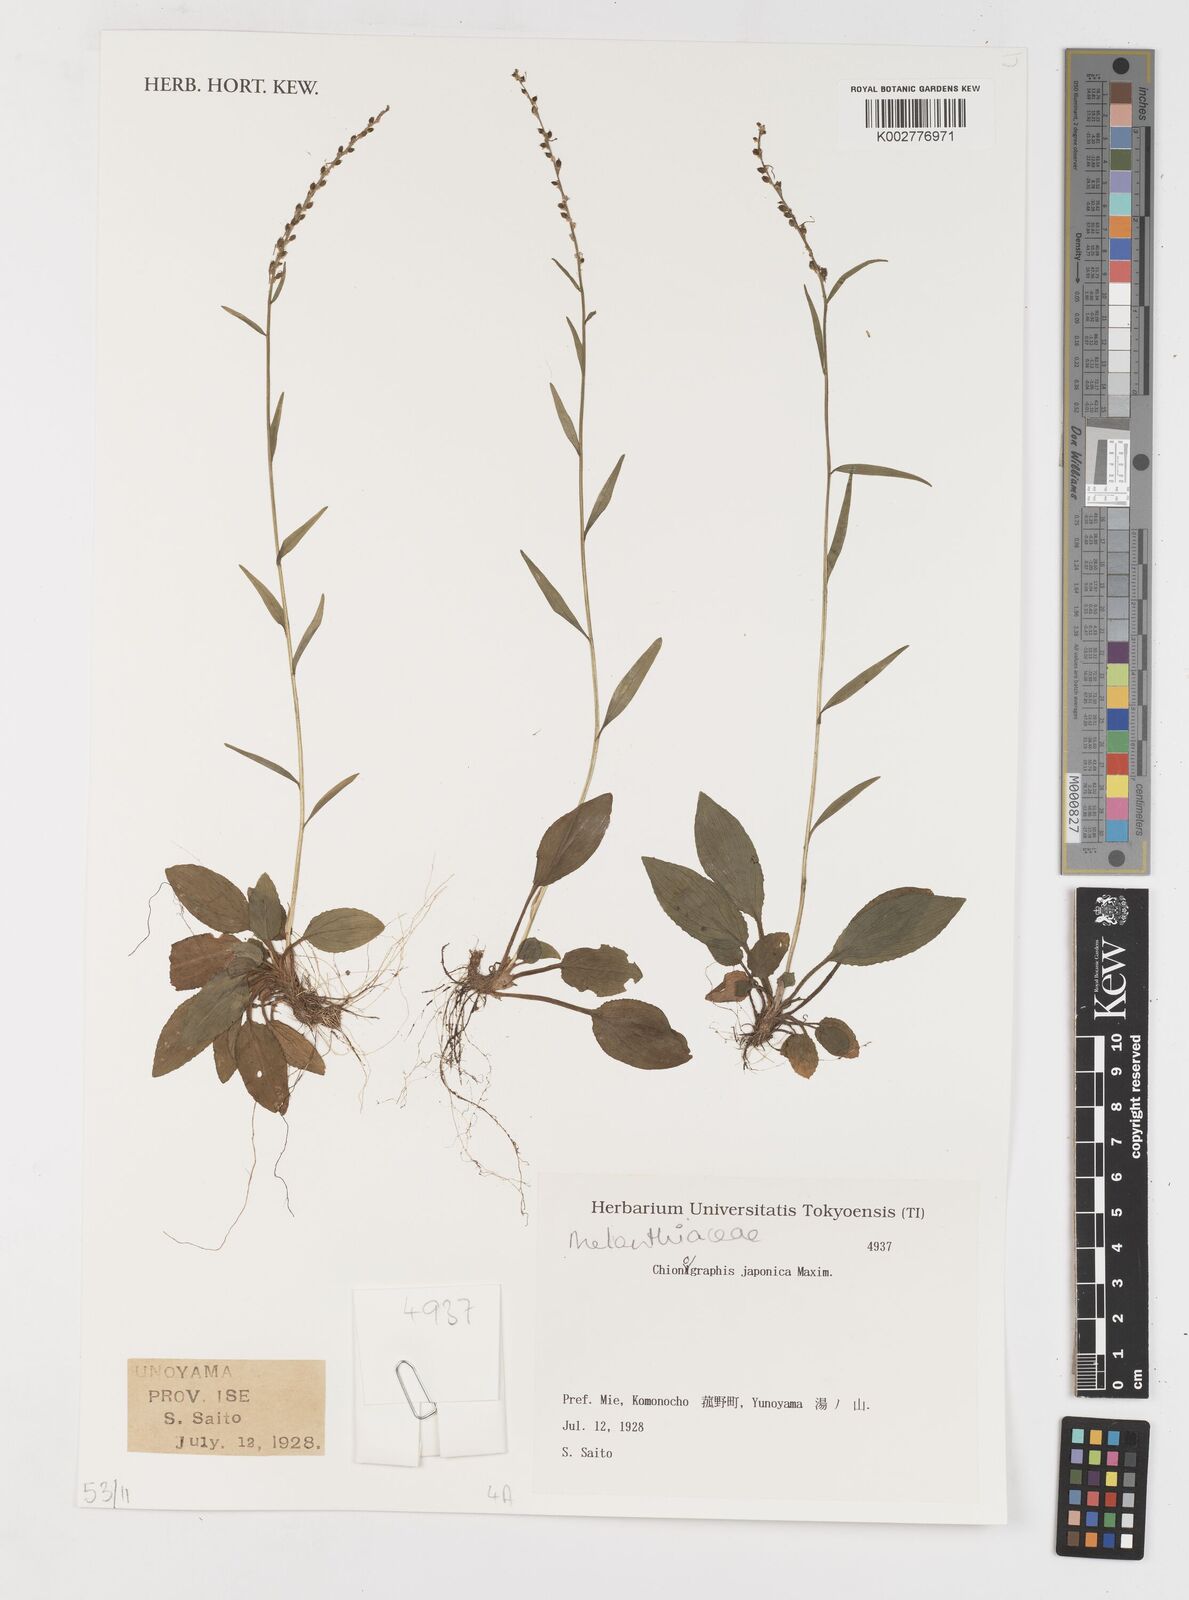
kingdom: Plantae
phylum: Tracheophyta
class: Liliopsida
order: Liliales
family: Melanthiaceae
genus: Chamaelirium
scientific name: Chamaelirium japonicum
